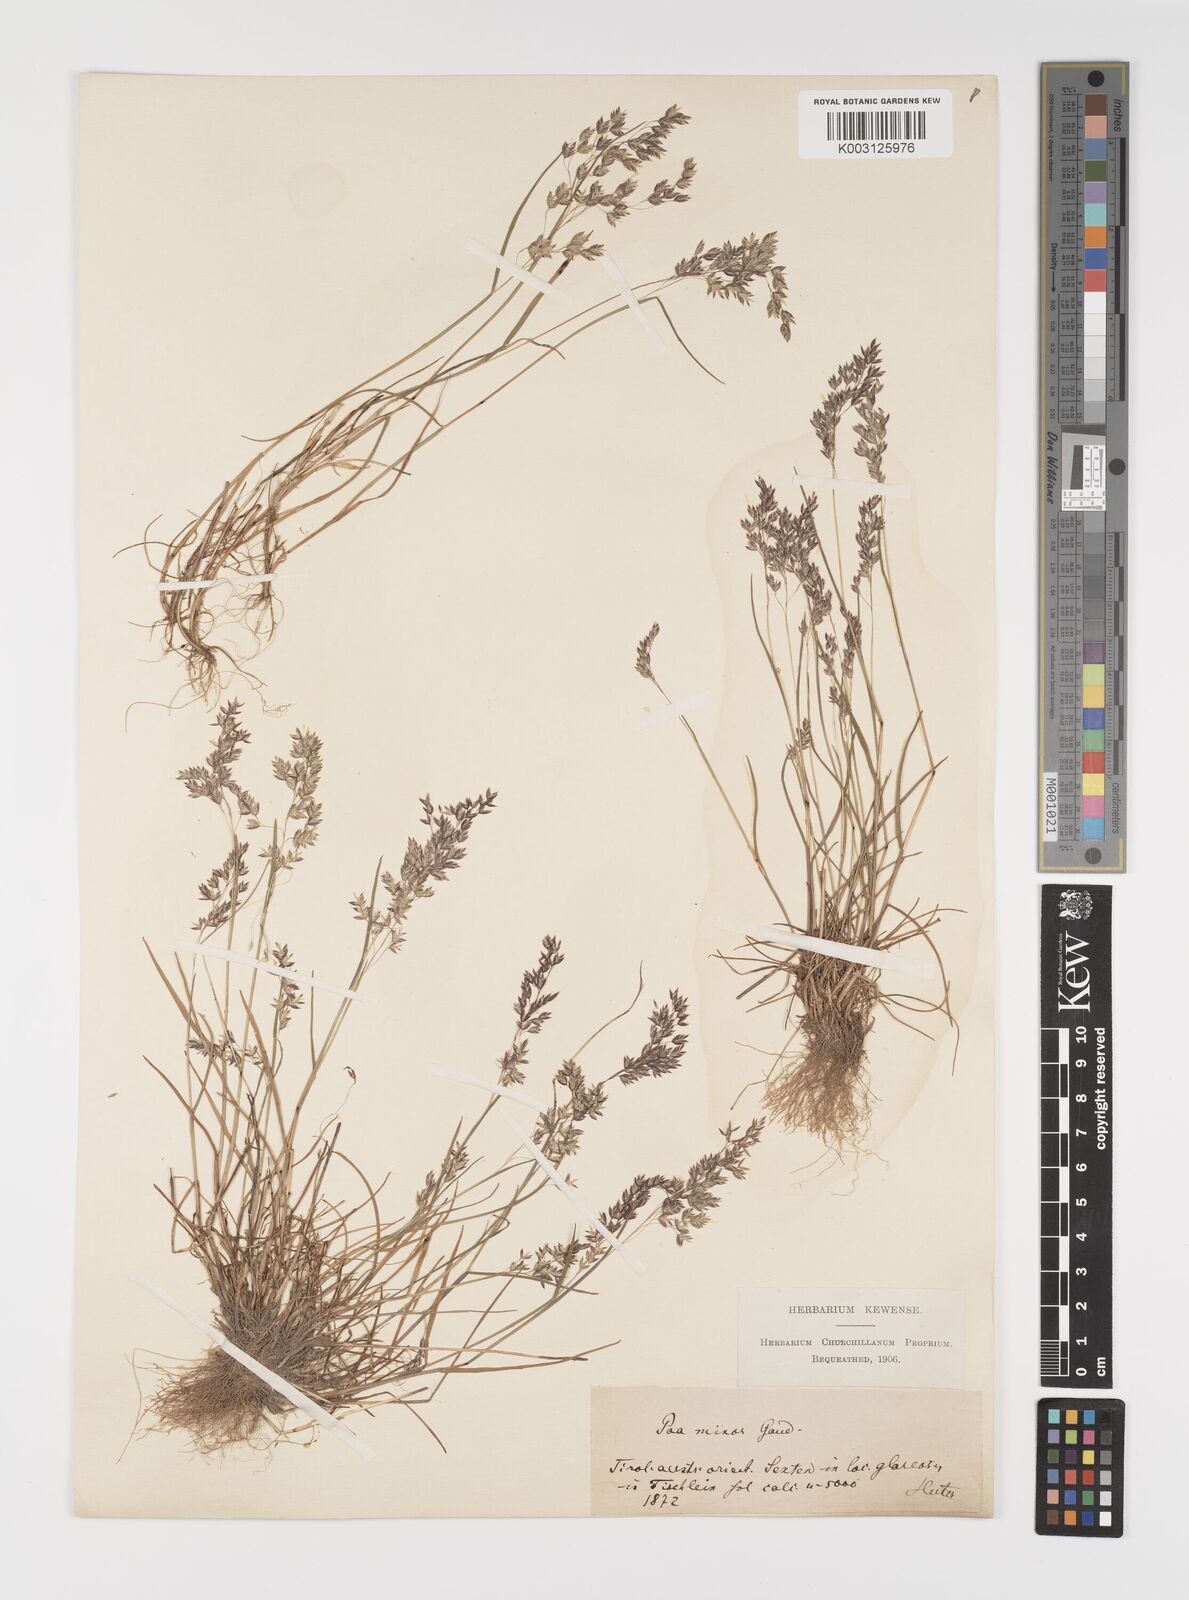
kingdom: Plantae
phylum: Tracheophyta
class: Liliopsida
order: Poales
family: Poaceae
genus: Poa
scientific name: Poa minor
